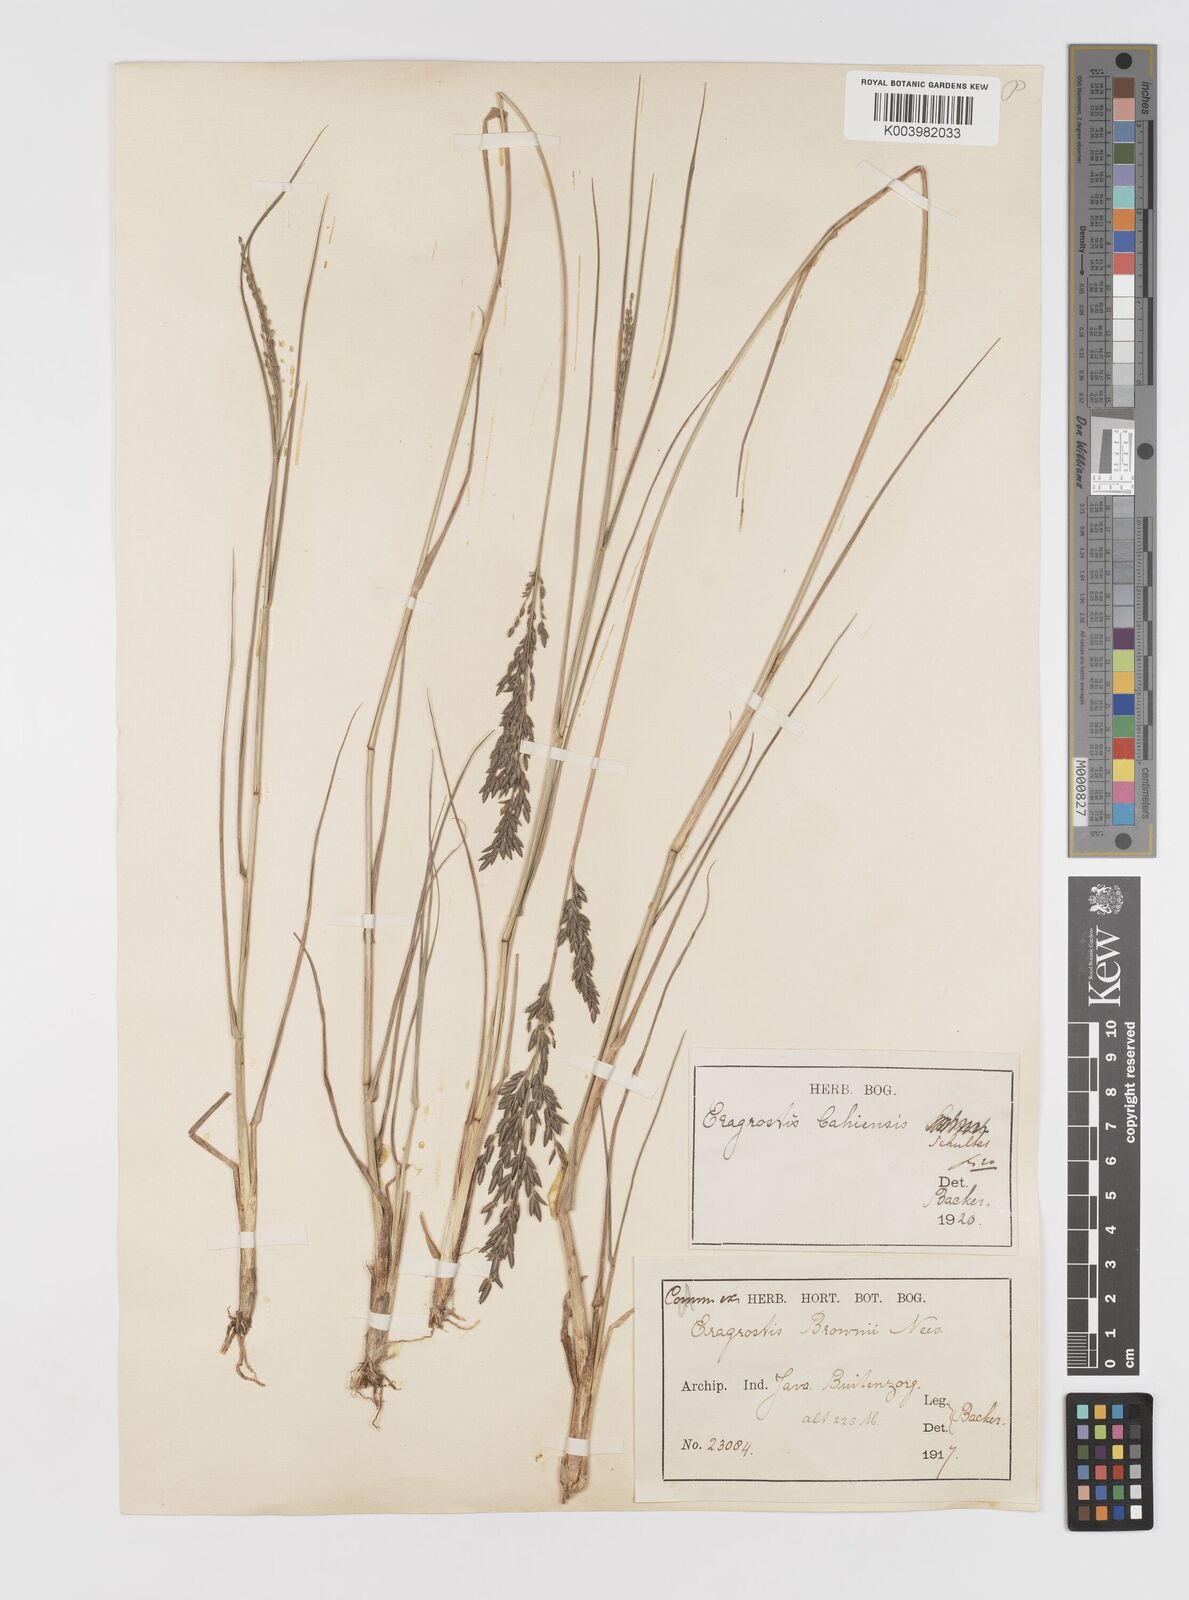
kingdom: Plantae
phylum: Tracheophyta
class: Liliopsida
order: Poales
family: Poaceae
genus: Eragrostis
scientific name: Eragrostis atrovirens
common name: Thalia lovegrass
